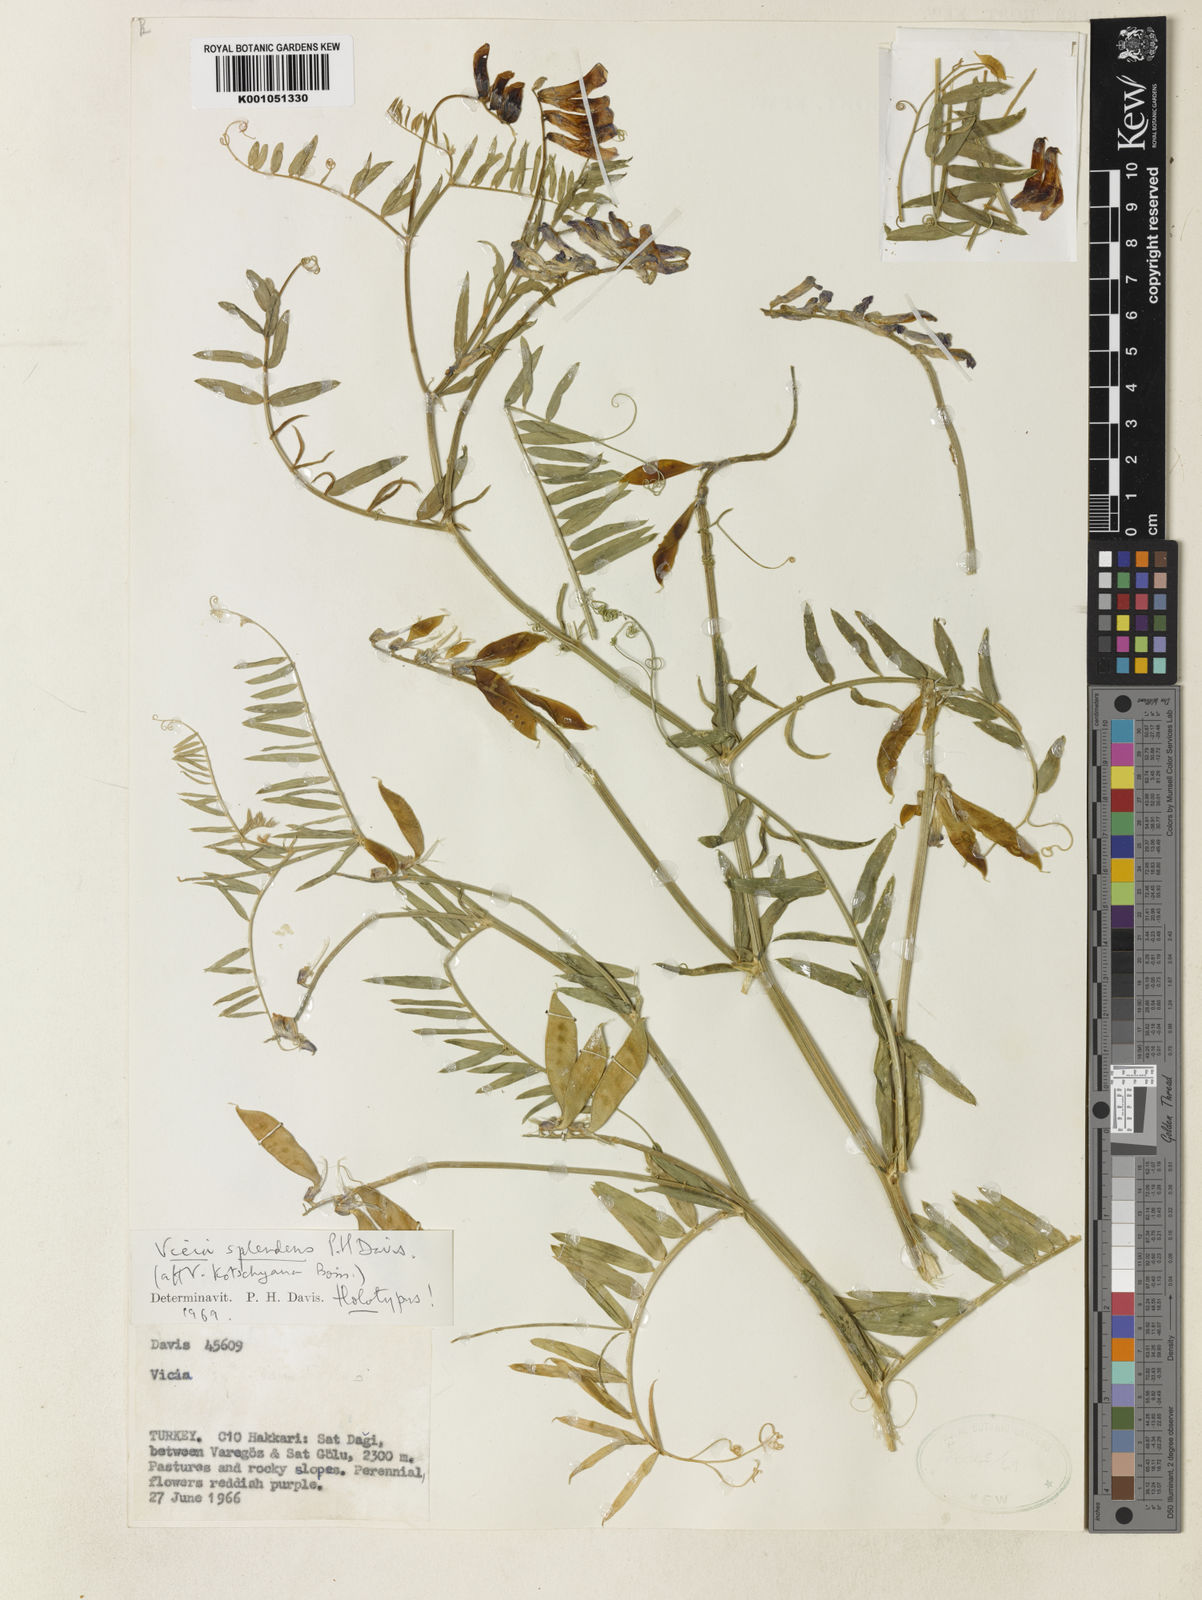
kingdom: Plantae
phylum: Tracheophyta
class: Magnoliopsida
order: Fabales
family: Fabaceae
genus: Vicia
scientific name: Vicia splendens
